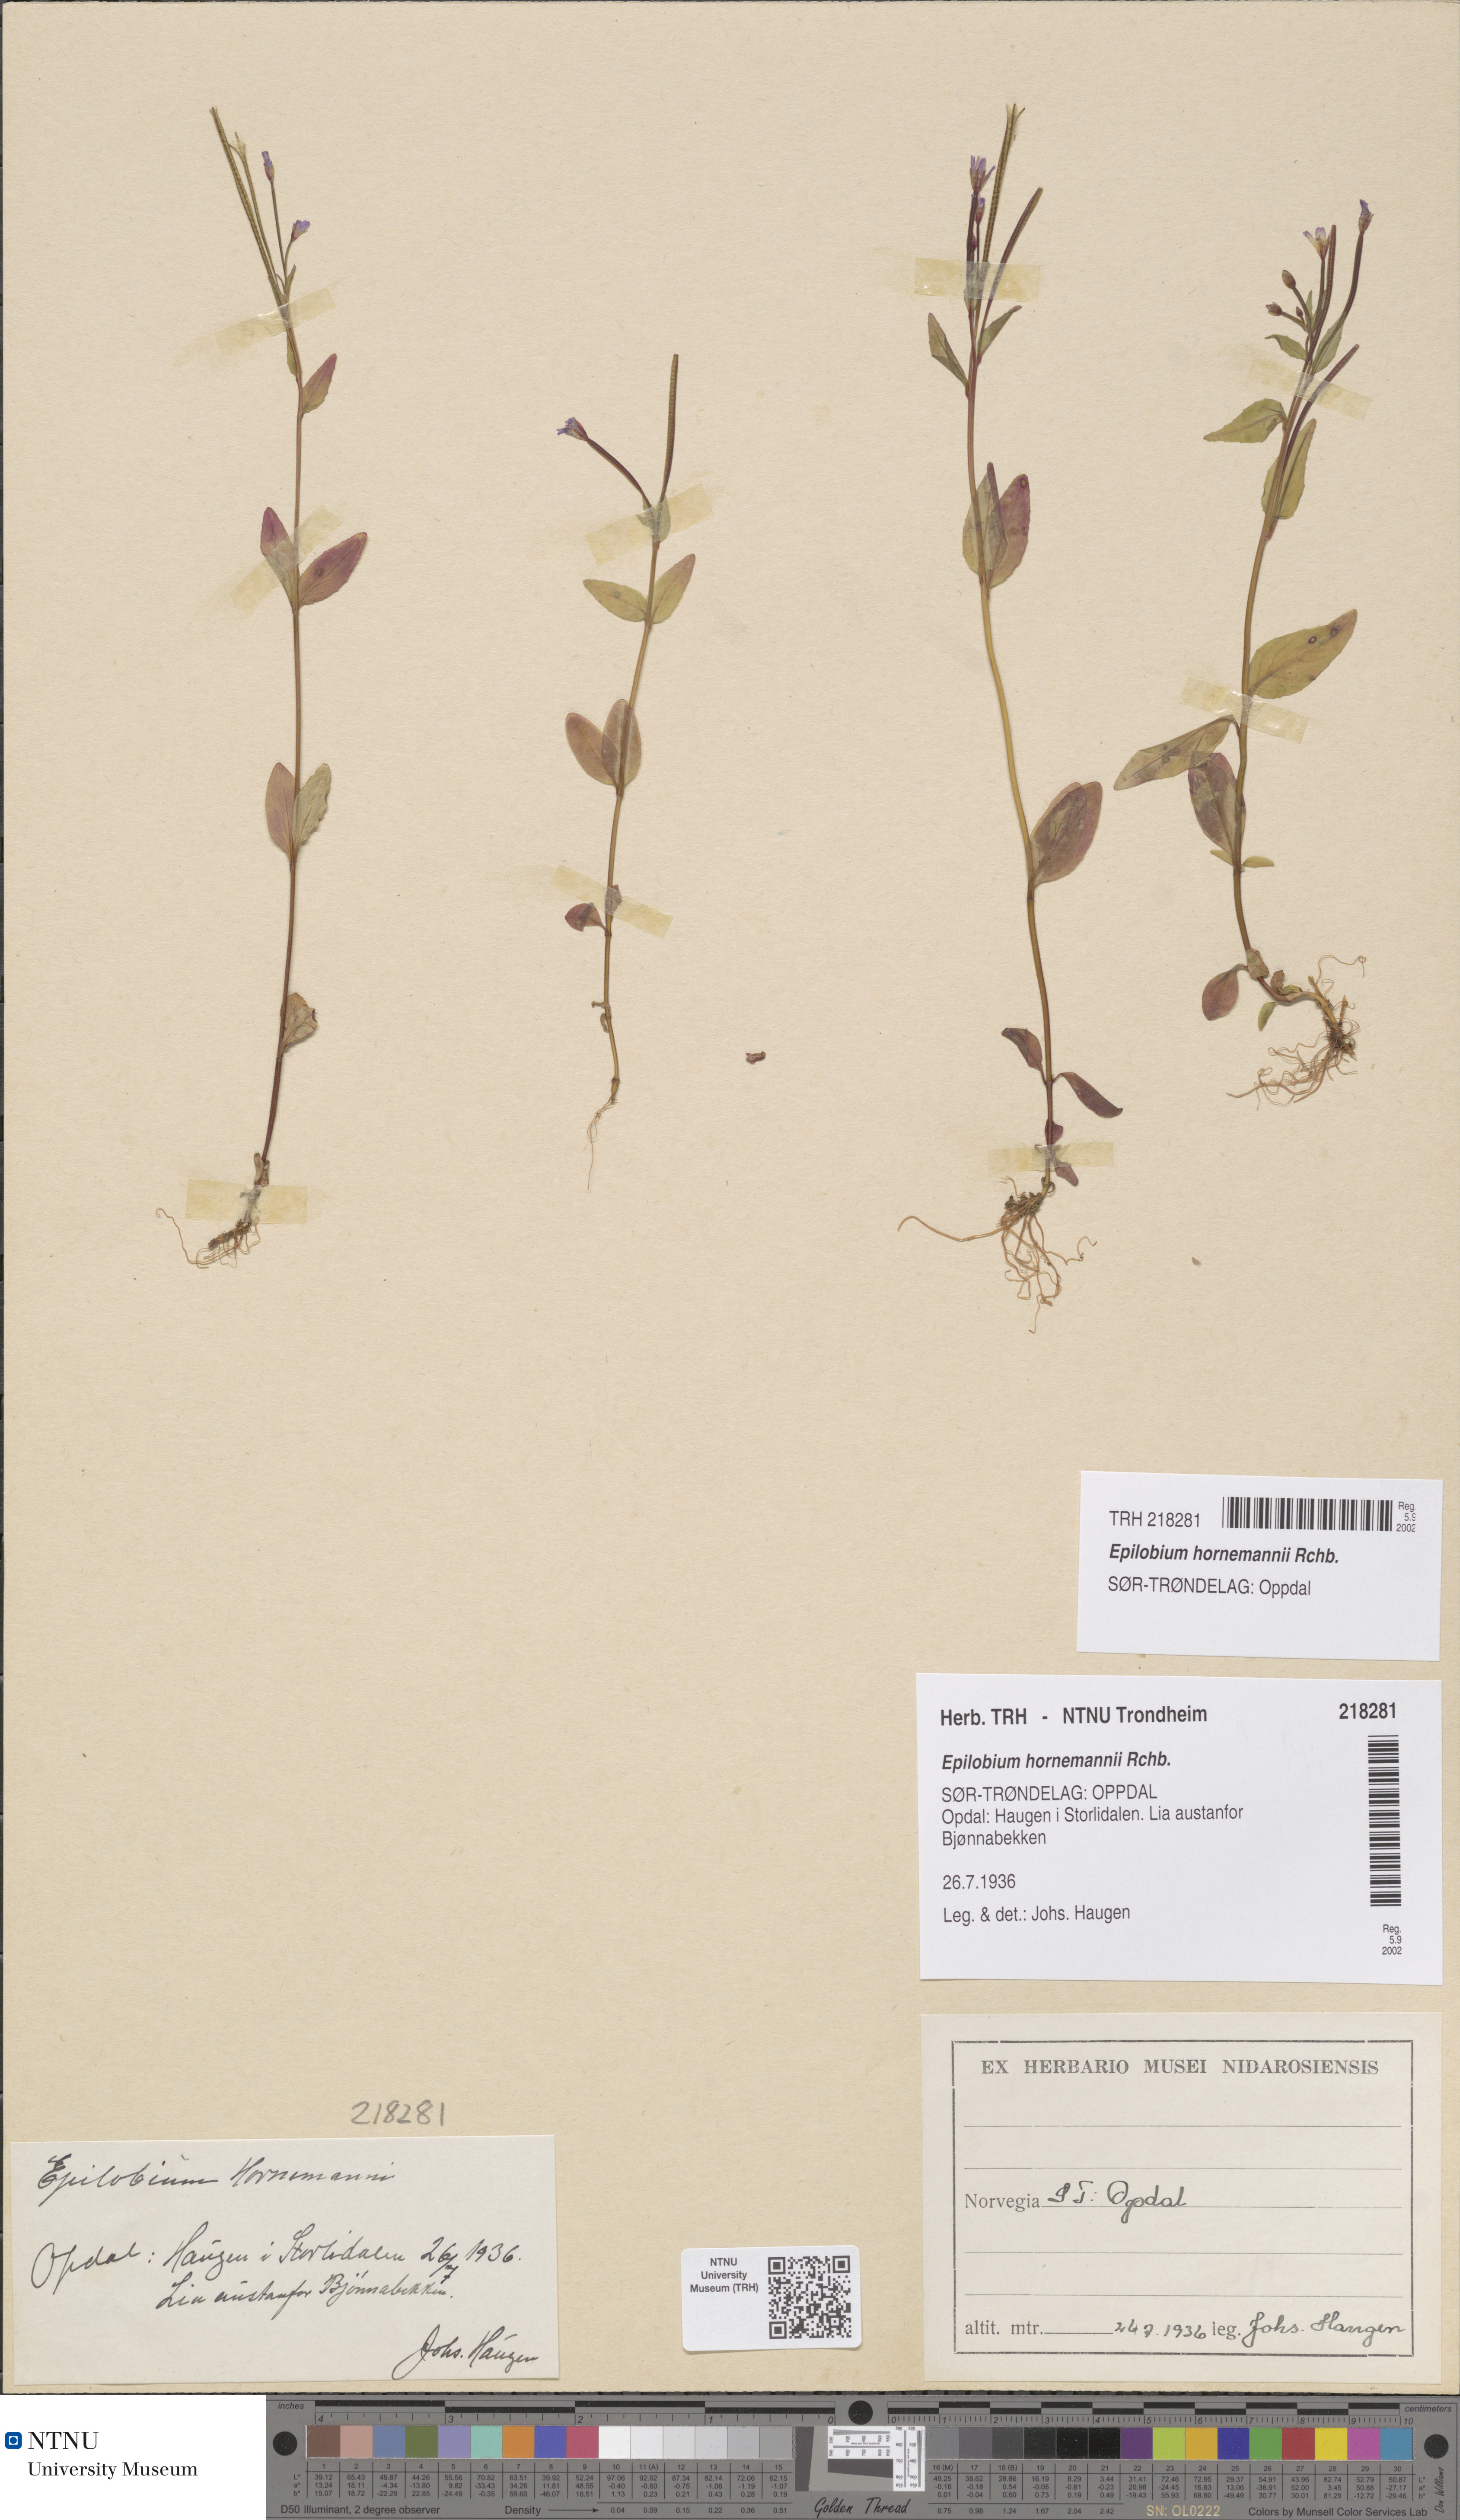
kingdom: Plantae
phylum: Tracheophyta
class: Magnoliopsida
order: Myrtales
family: Onagraceae
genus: Epilobium
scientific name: Epilobium hornemannii
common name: Hornemann's willowherb
